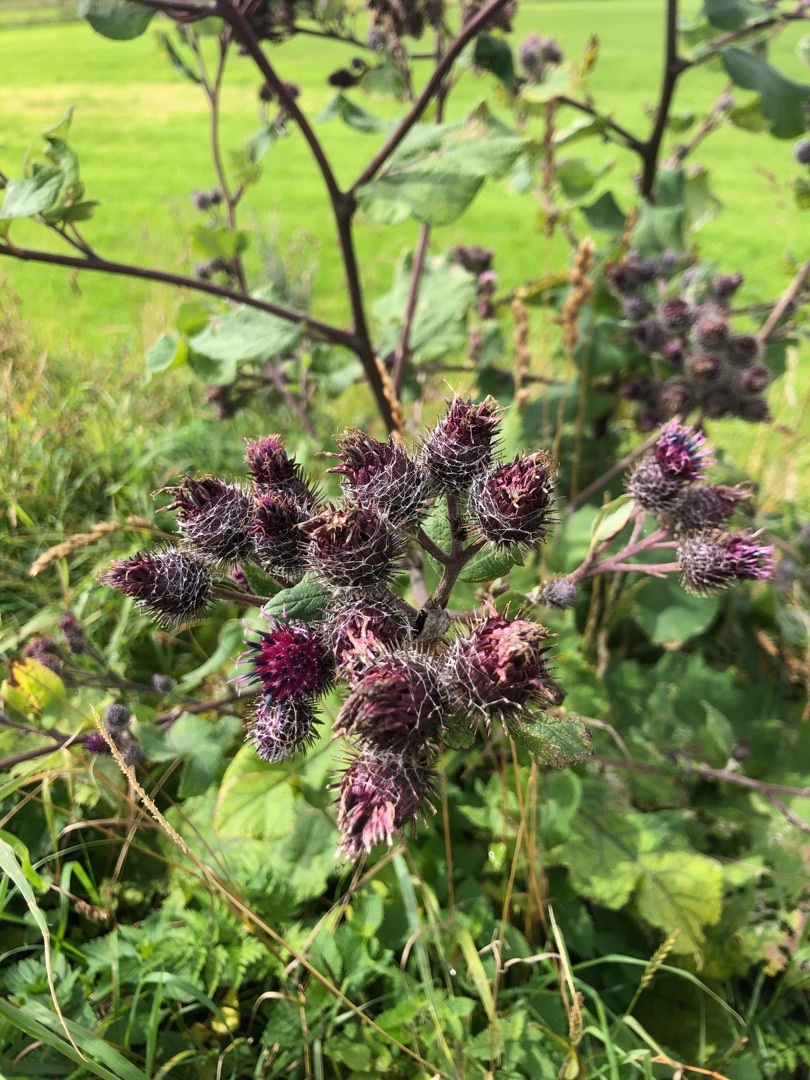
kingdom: Plantae
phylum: Tracheophyta
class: Magnoliopsida
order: Asterales
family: Asteraceae
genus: Arctium
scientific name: Arctium tomentosum
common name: Filtet burre
